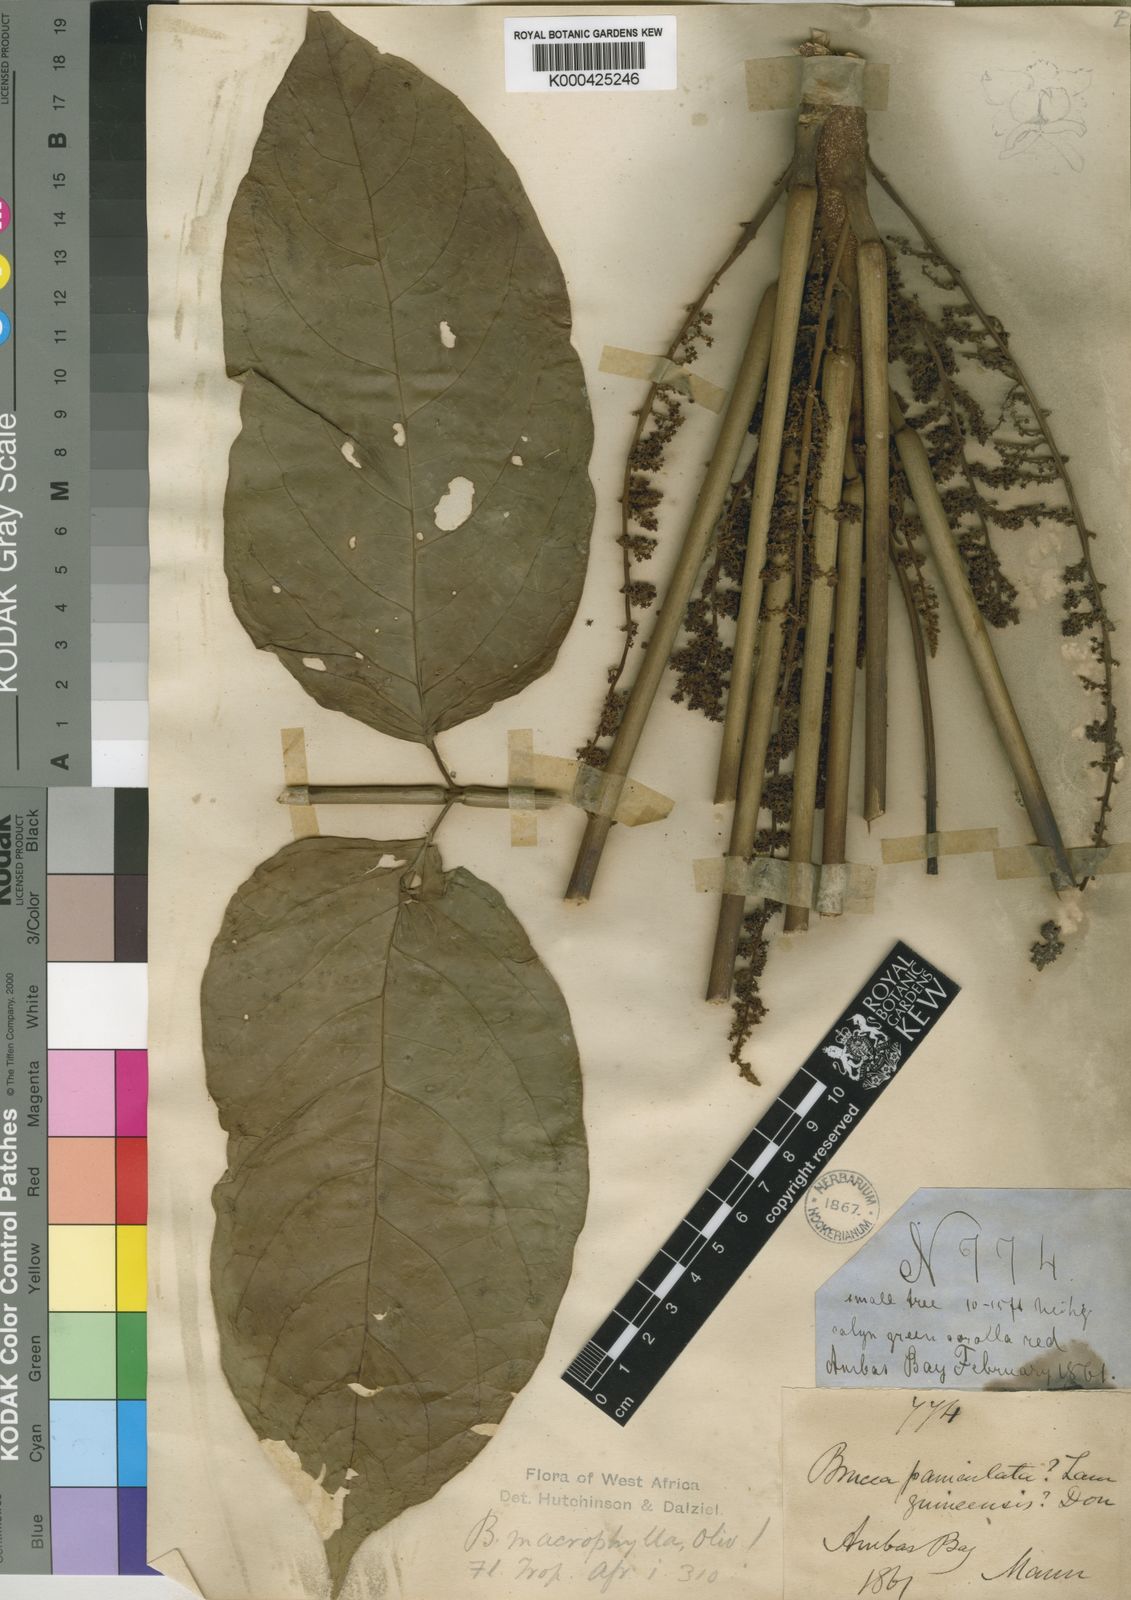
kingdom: Plantae
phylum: Tracheophyta
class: Magnoliopsida
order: Sapindales
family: Anacardiaceae
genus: Trichoscypha
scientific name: Trichoscypha smythei
